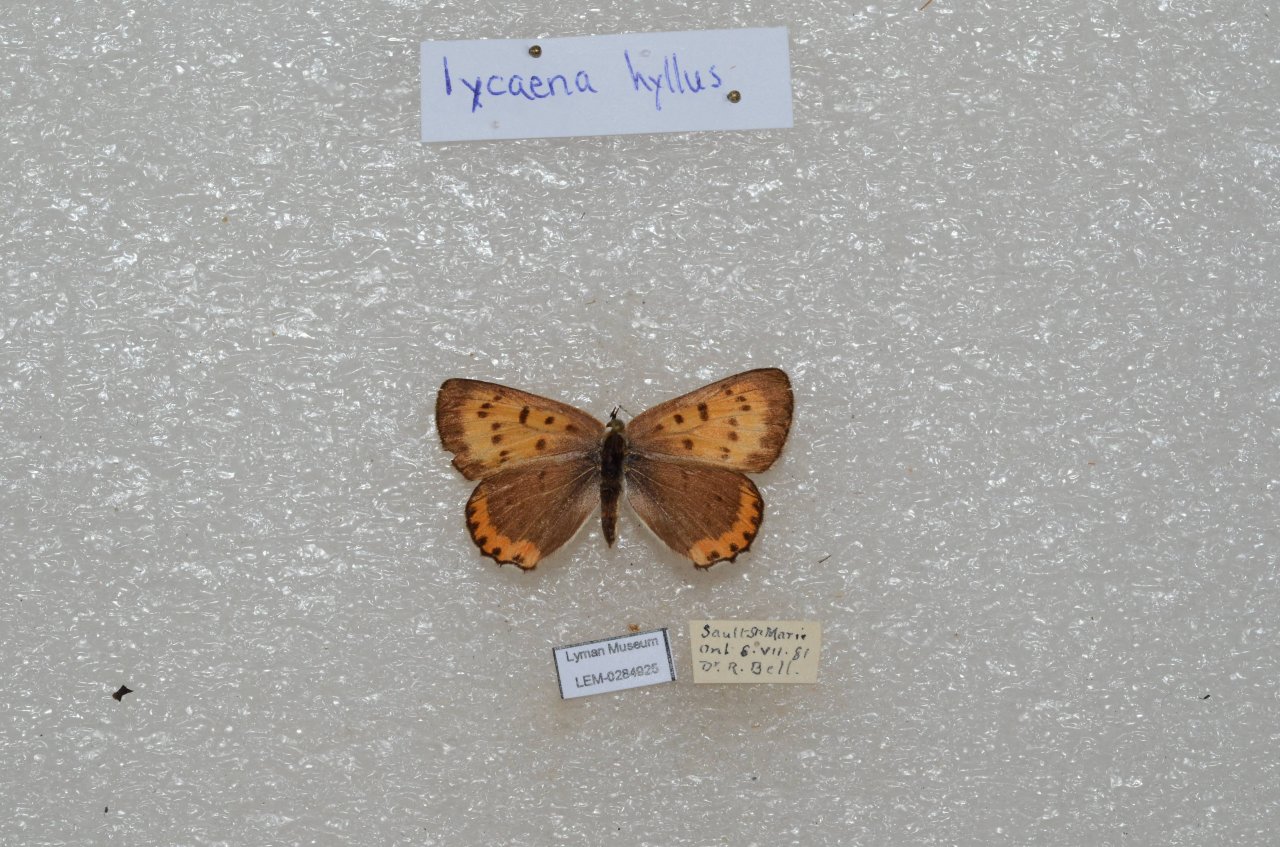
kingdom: Animalia
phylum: Arthropoda
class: Insecta
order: Lepidoptera
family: Sesiidae
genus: Sesia
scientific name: Sesia Lycaena hyllus
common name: Bronze Copper
